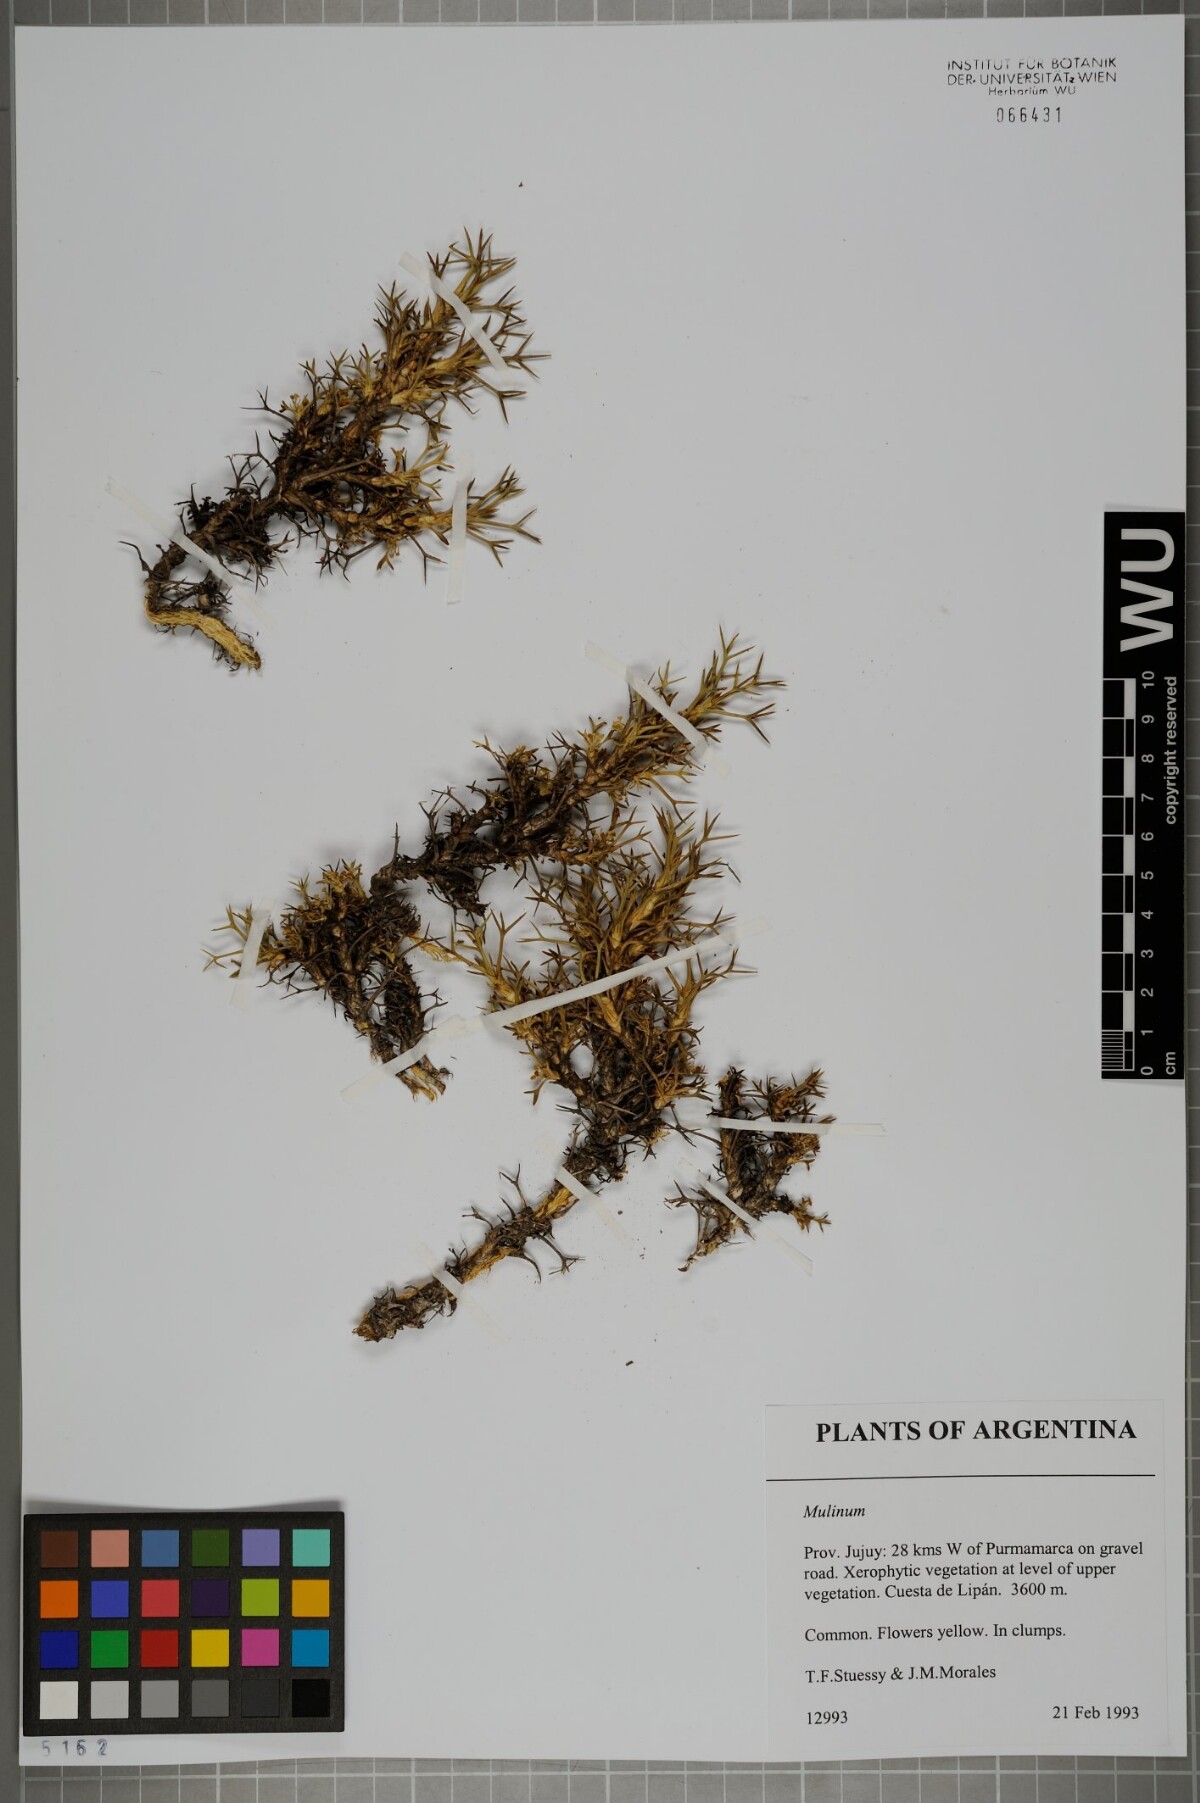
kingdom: Plantae
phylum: Tracheophyta
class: Magnoliopsida
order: Apiales
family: Apiaceae
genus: Azorella
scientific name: Azorella
